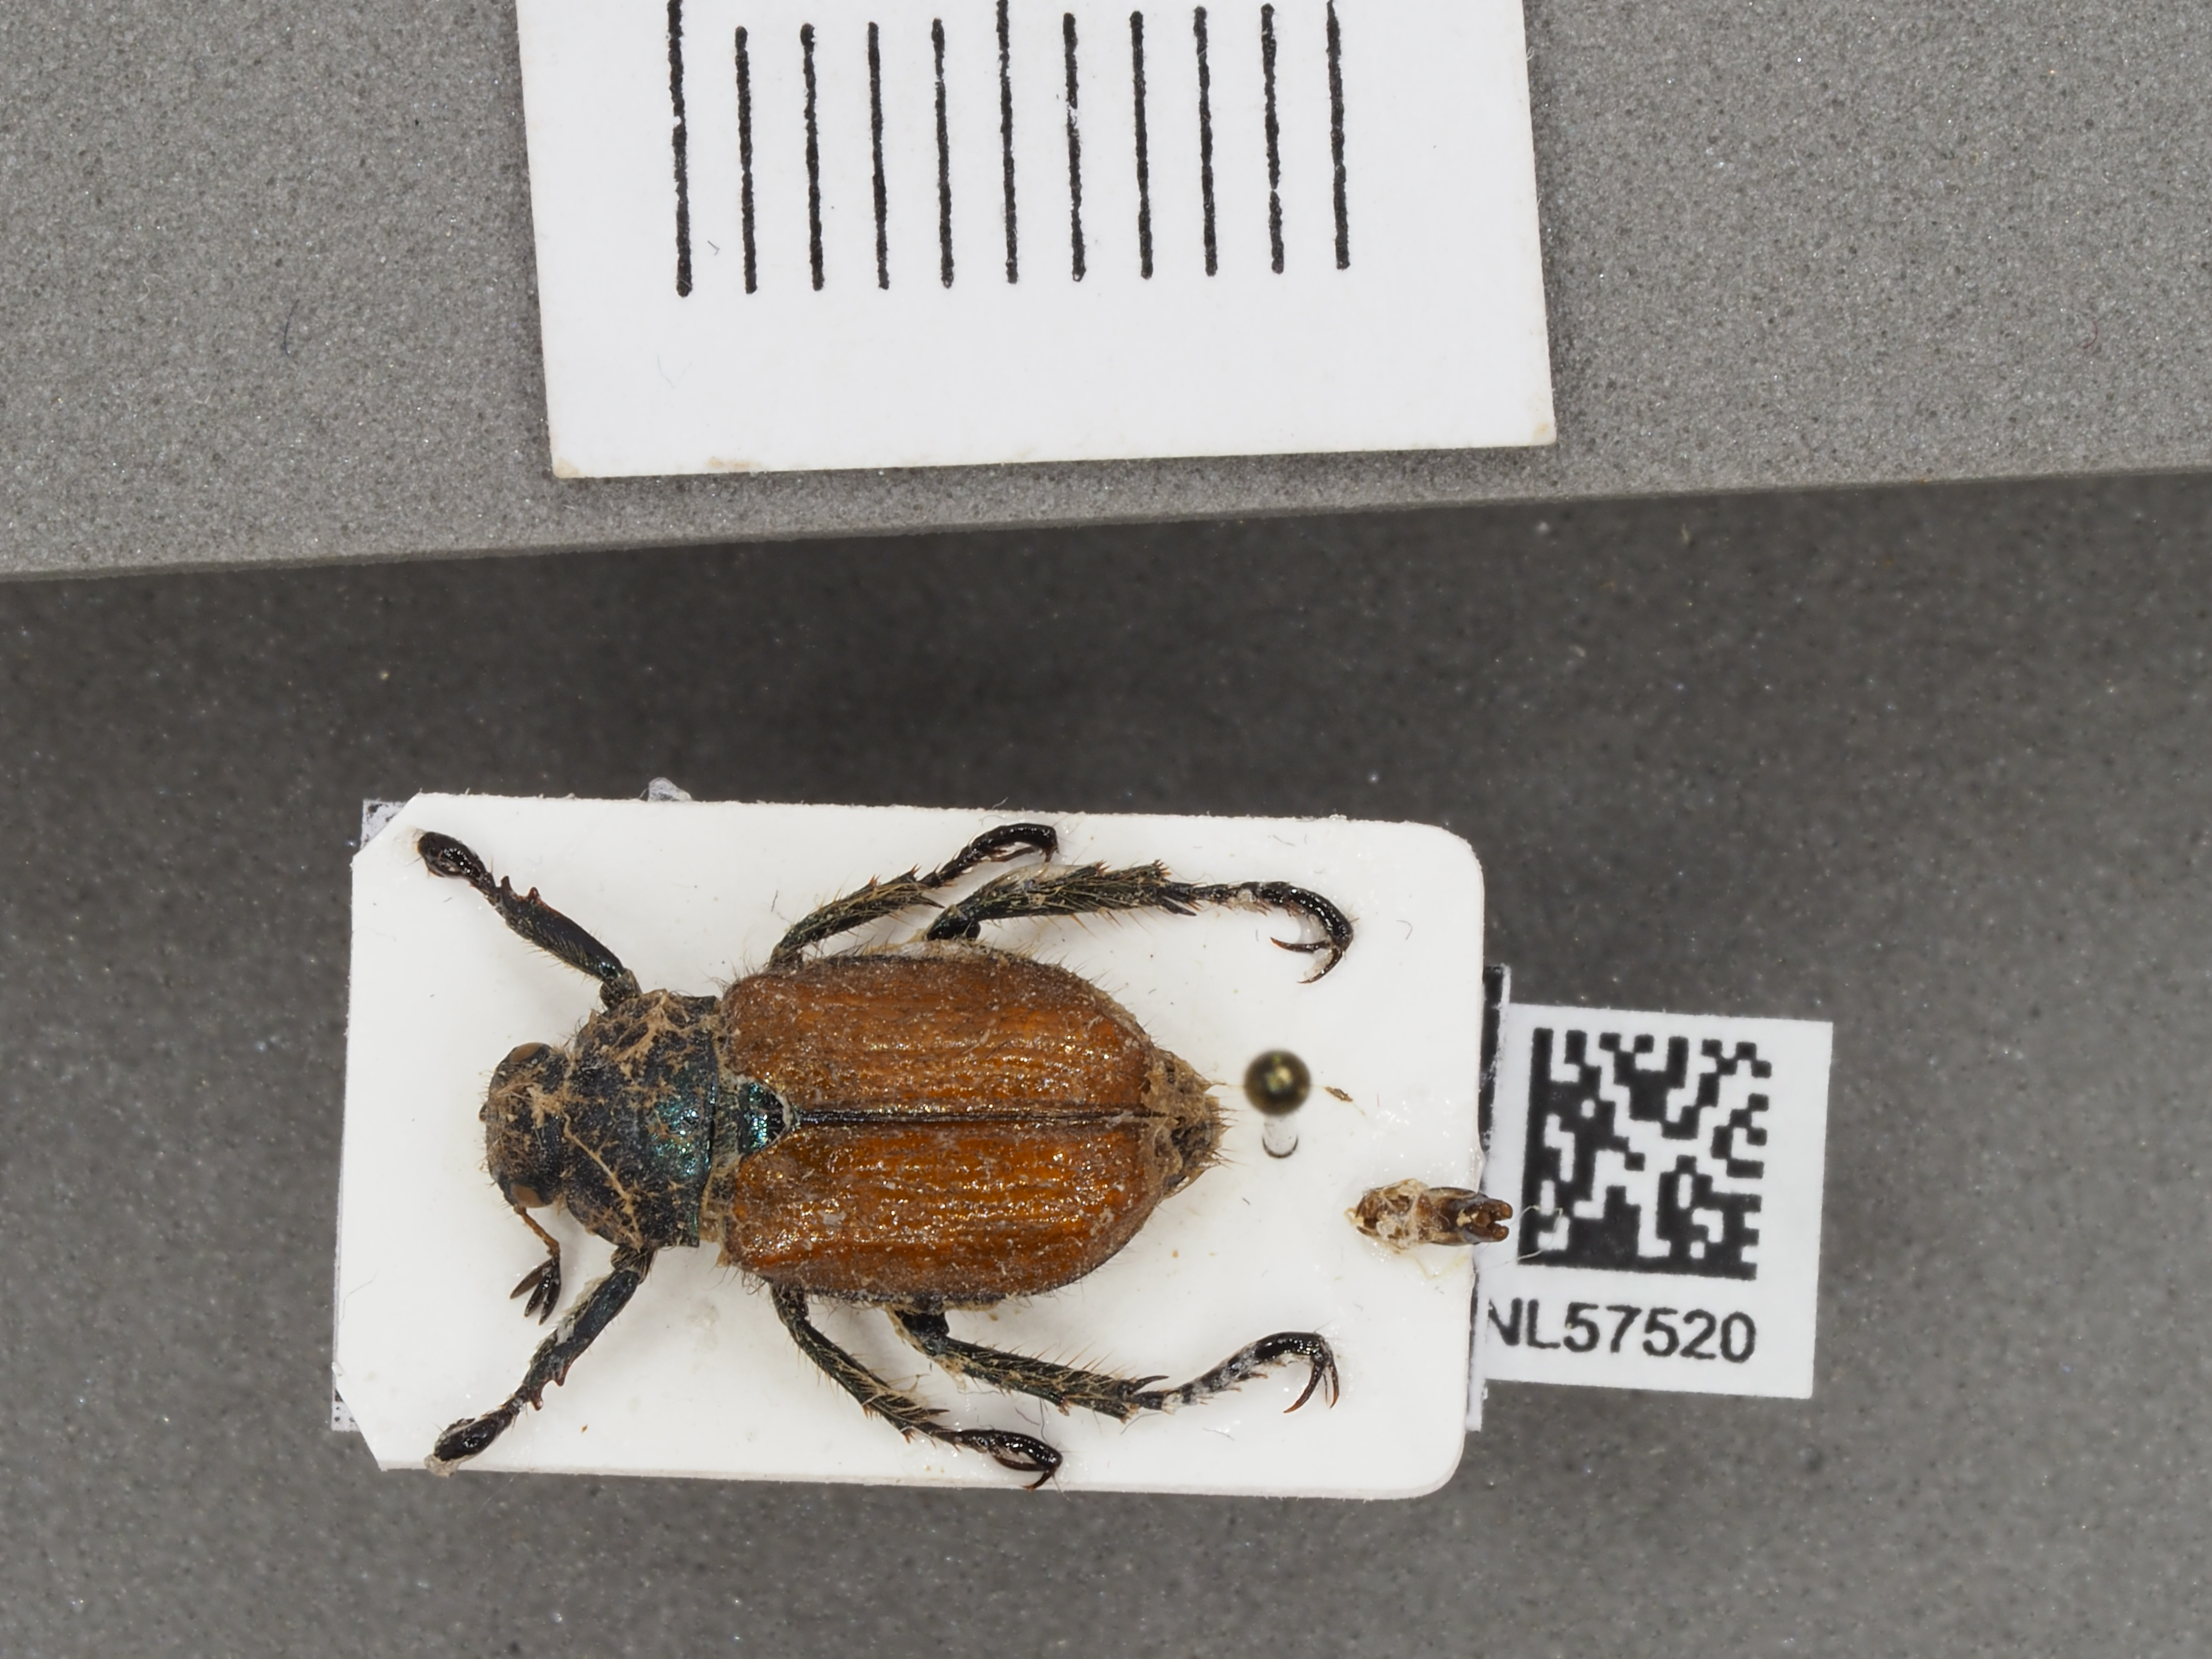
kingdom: Animalia
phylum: Arthropoda
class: Insecta
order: Coleoptera
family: Scarabaeidae
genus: Phyllopertha
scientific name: Phyllopertha horticola
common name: Garden chafer
